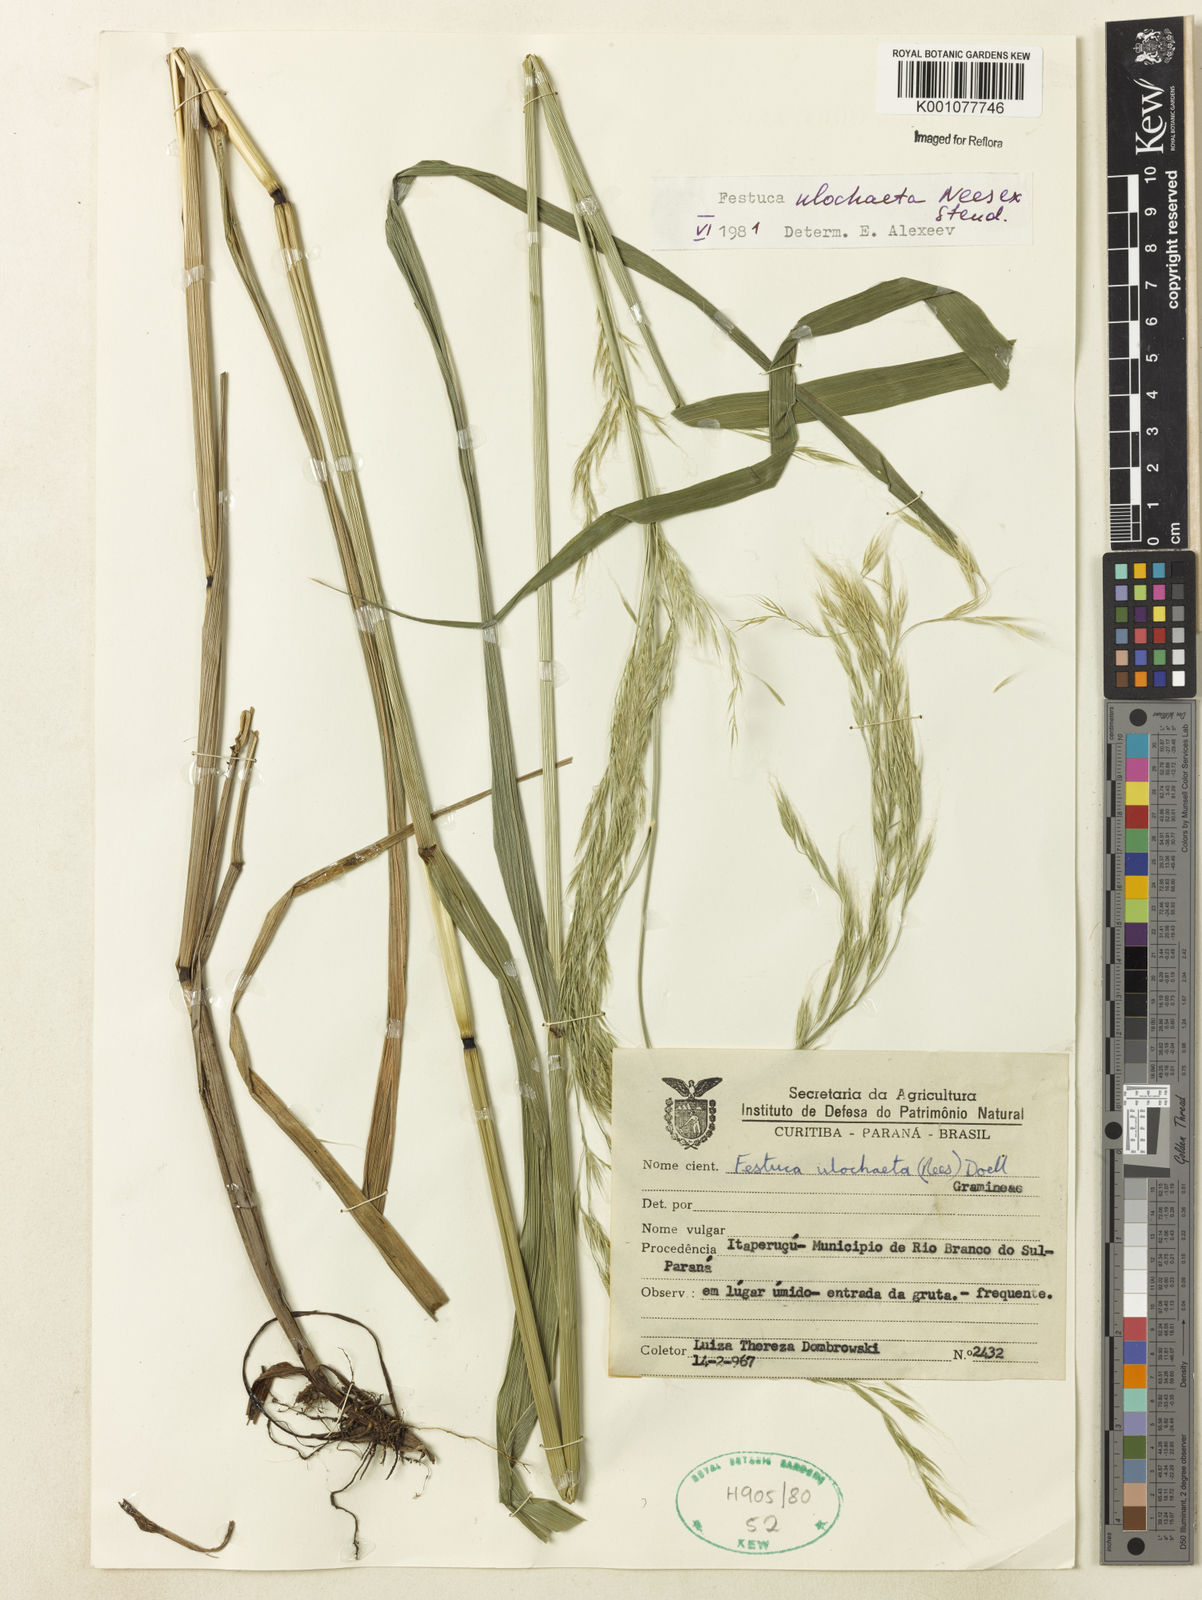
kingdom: Plantae
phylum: Tracheophyta
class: Liliopsida
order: Poales
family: Poaceae
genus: Festuca
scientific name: Festuca ulochaeta
